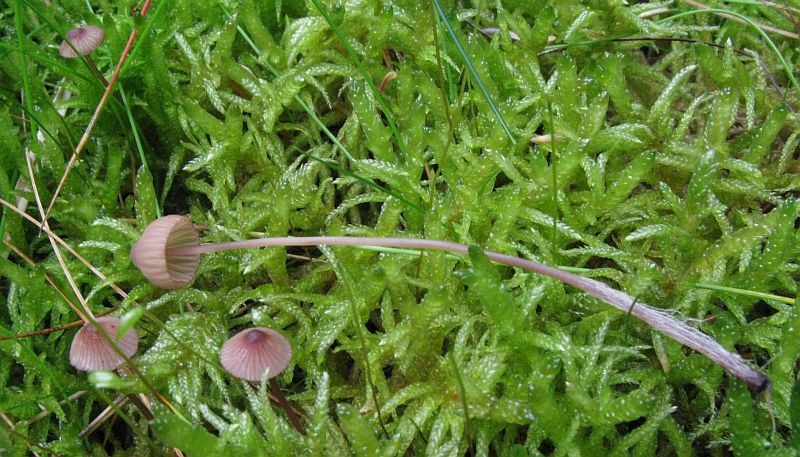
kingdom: Fungi
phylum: Basidiomycota
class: Agaricomycetes
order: Agaricales
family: Mycenaceae
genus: Mycena
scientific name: Mycena sanguinolenta
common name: rødmælket huesvamp
